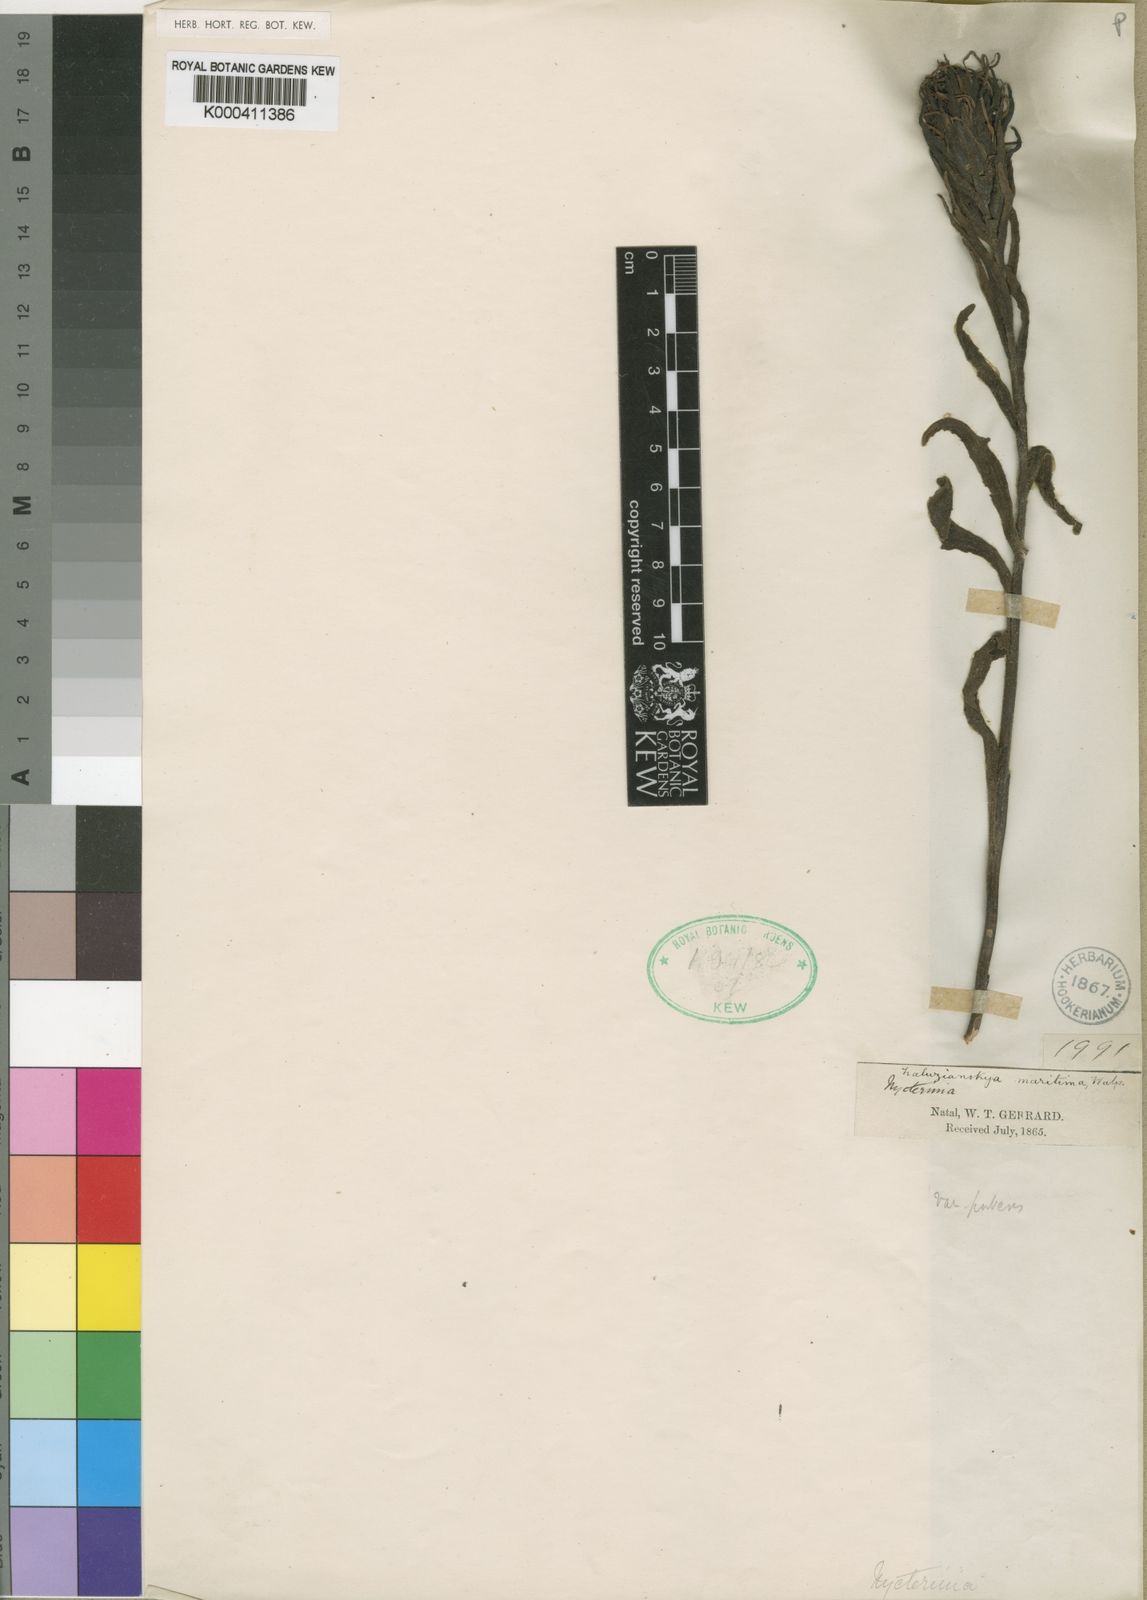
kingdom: Plantae
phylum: Tracheophyta
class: Magnoliopsida
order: Lamiales
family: Scrophulariaceae
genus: Zaluzianskya
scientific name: Zaluzianskya spathacea
